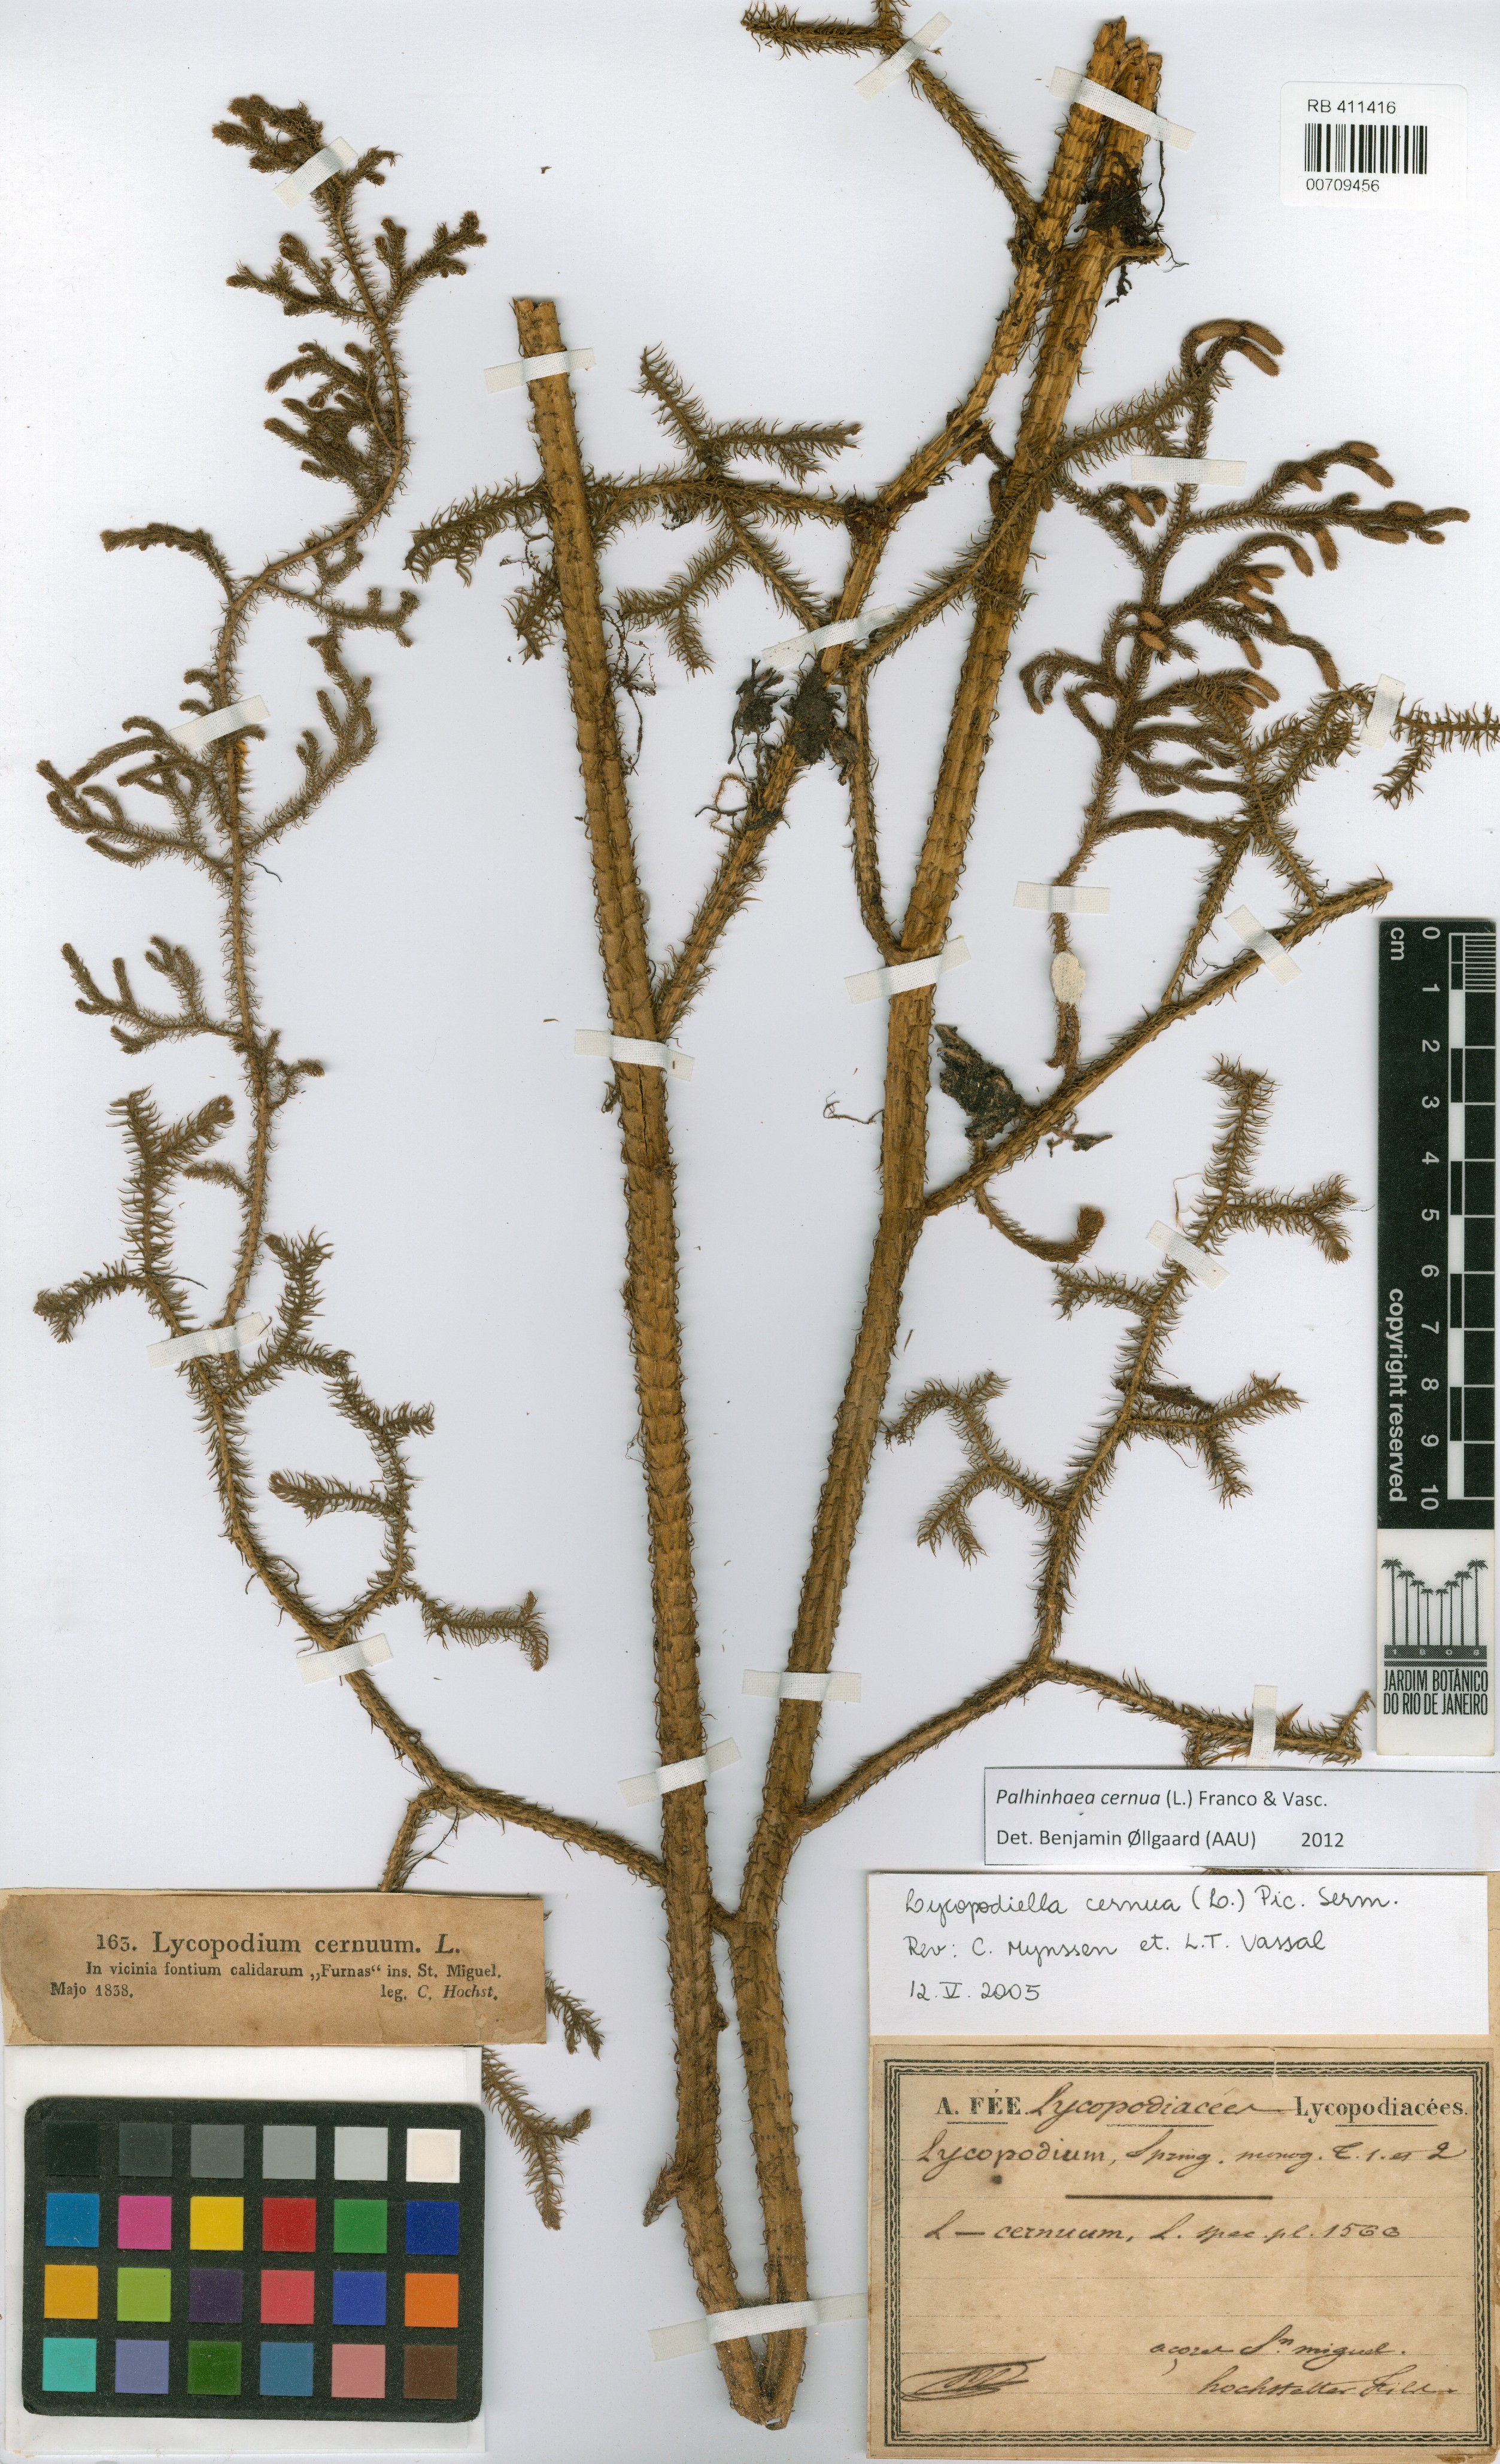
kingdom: Plantae
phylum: Tracheophyta
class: Lycopodiopsida
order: Lycopodiales
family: Lycopodiaceae
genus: Palhinhaea
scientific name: Palhinhaea cernua
